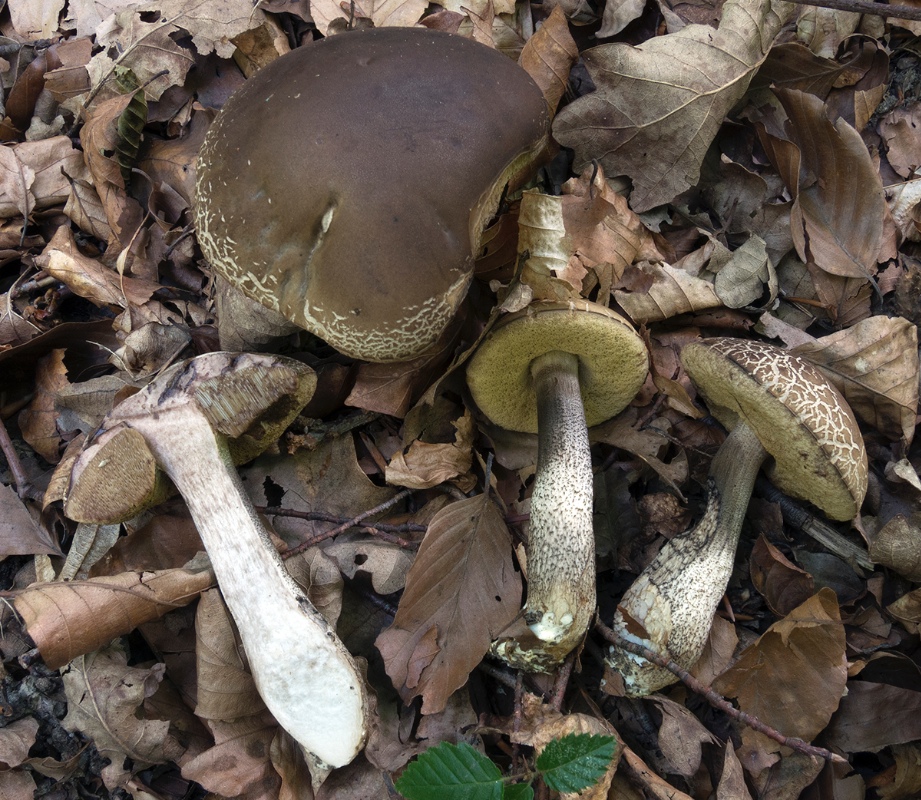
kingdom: Fungi
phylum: Basidiomycota
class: Agaricomycetes
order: Boletales
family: Boletaceae
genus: Leccinellum
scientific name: Leccinellum pseudoscabrum
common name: avnbøg-skælrørhat
